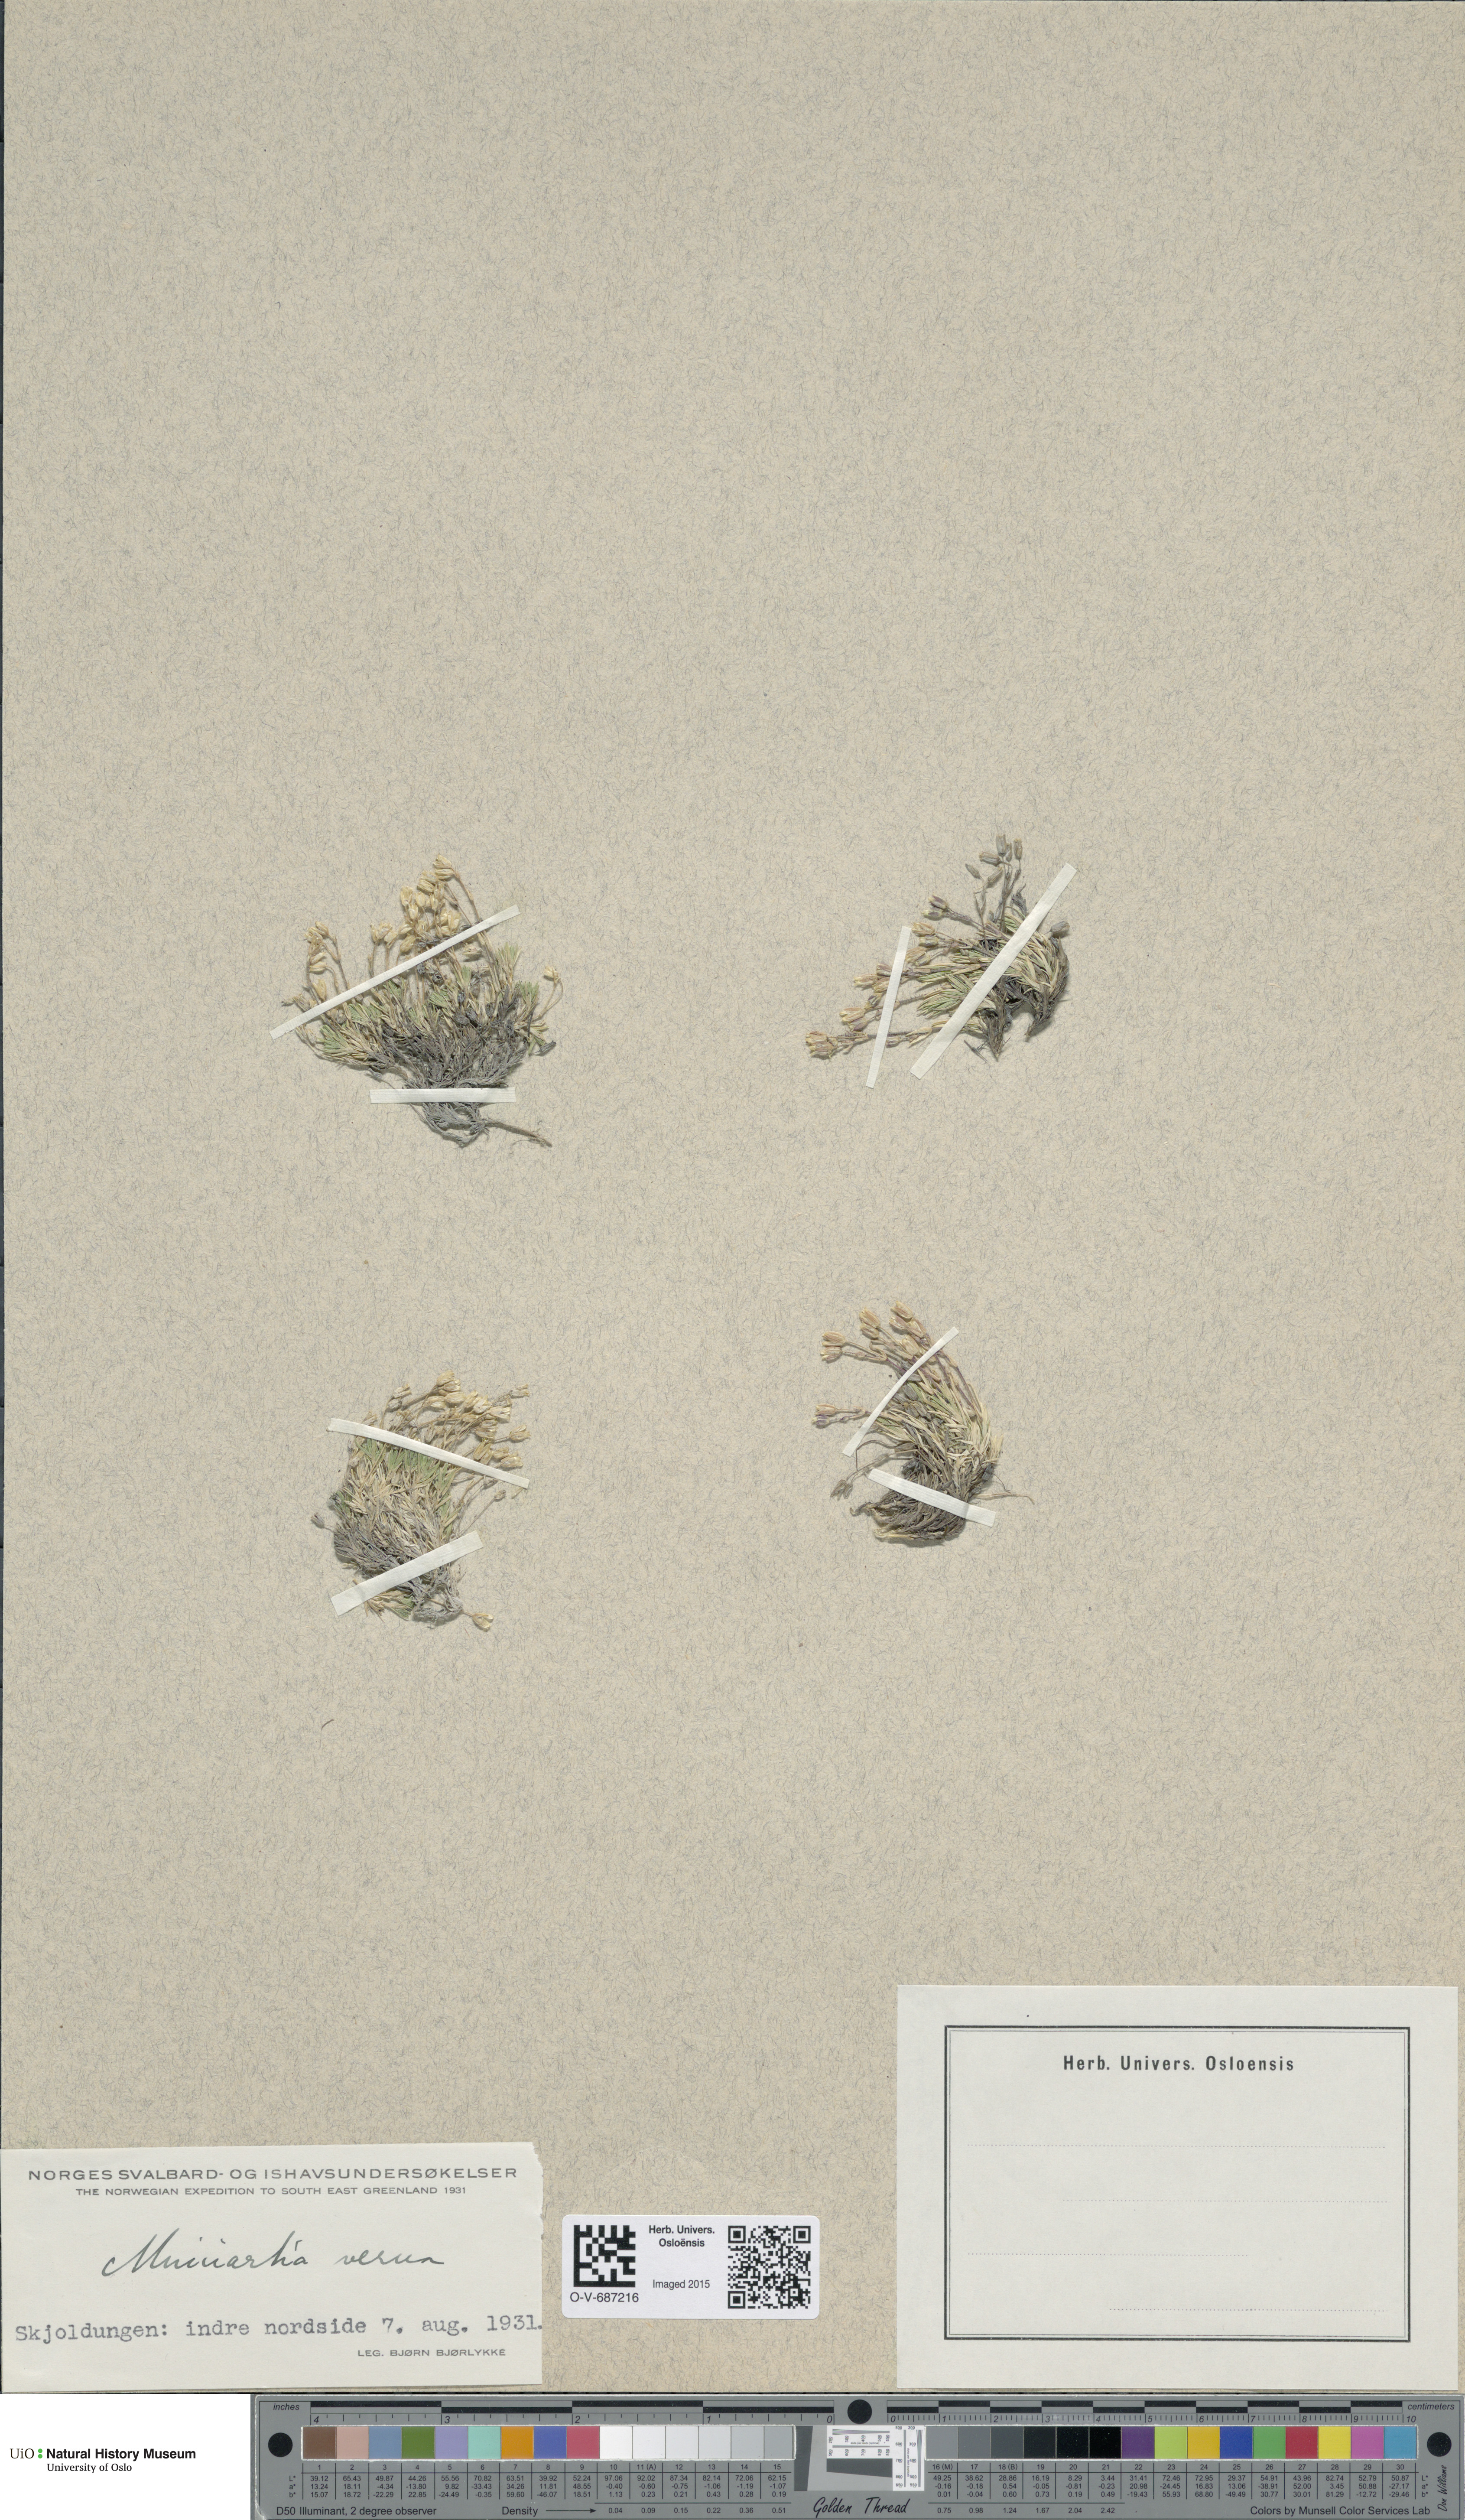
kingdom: Plantae
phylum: Tracheophyta
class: Magnoliopsida
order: Caryophyllales
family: Caryophyllaceae
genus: Sabulina
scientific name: Sabulina verna
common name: Spring sandwort
